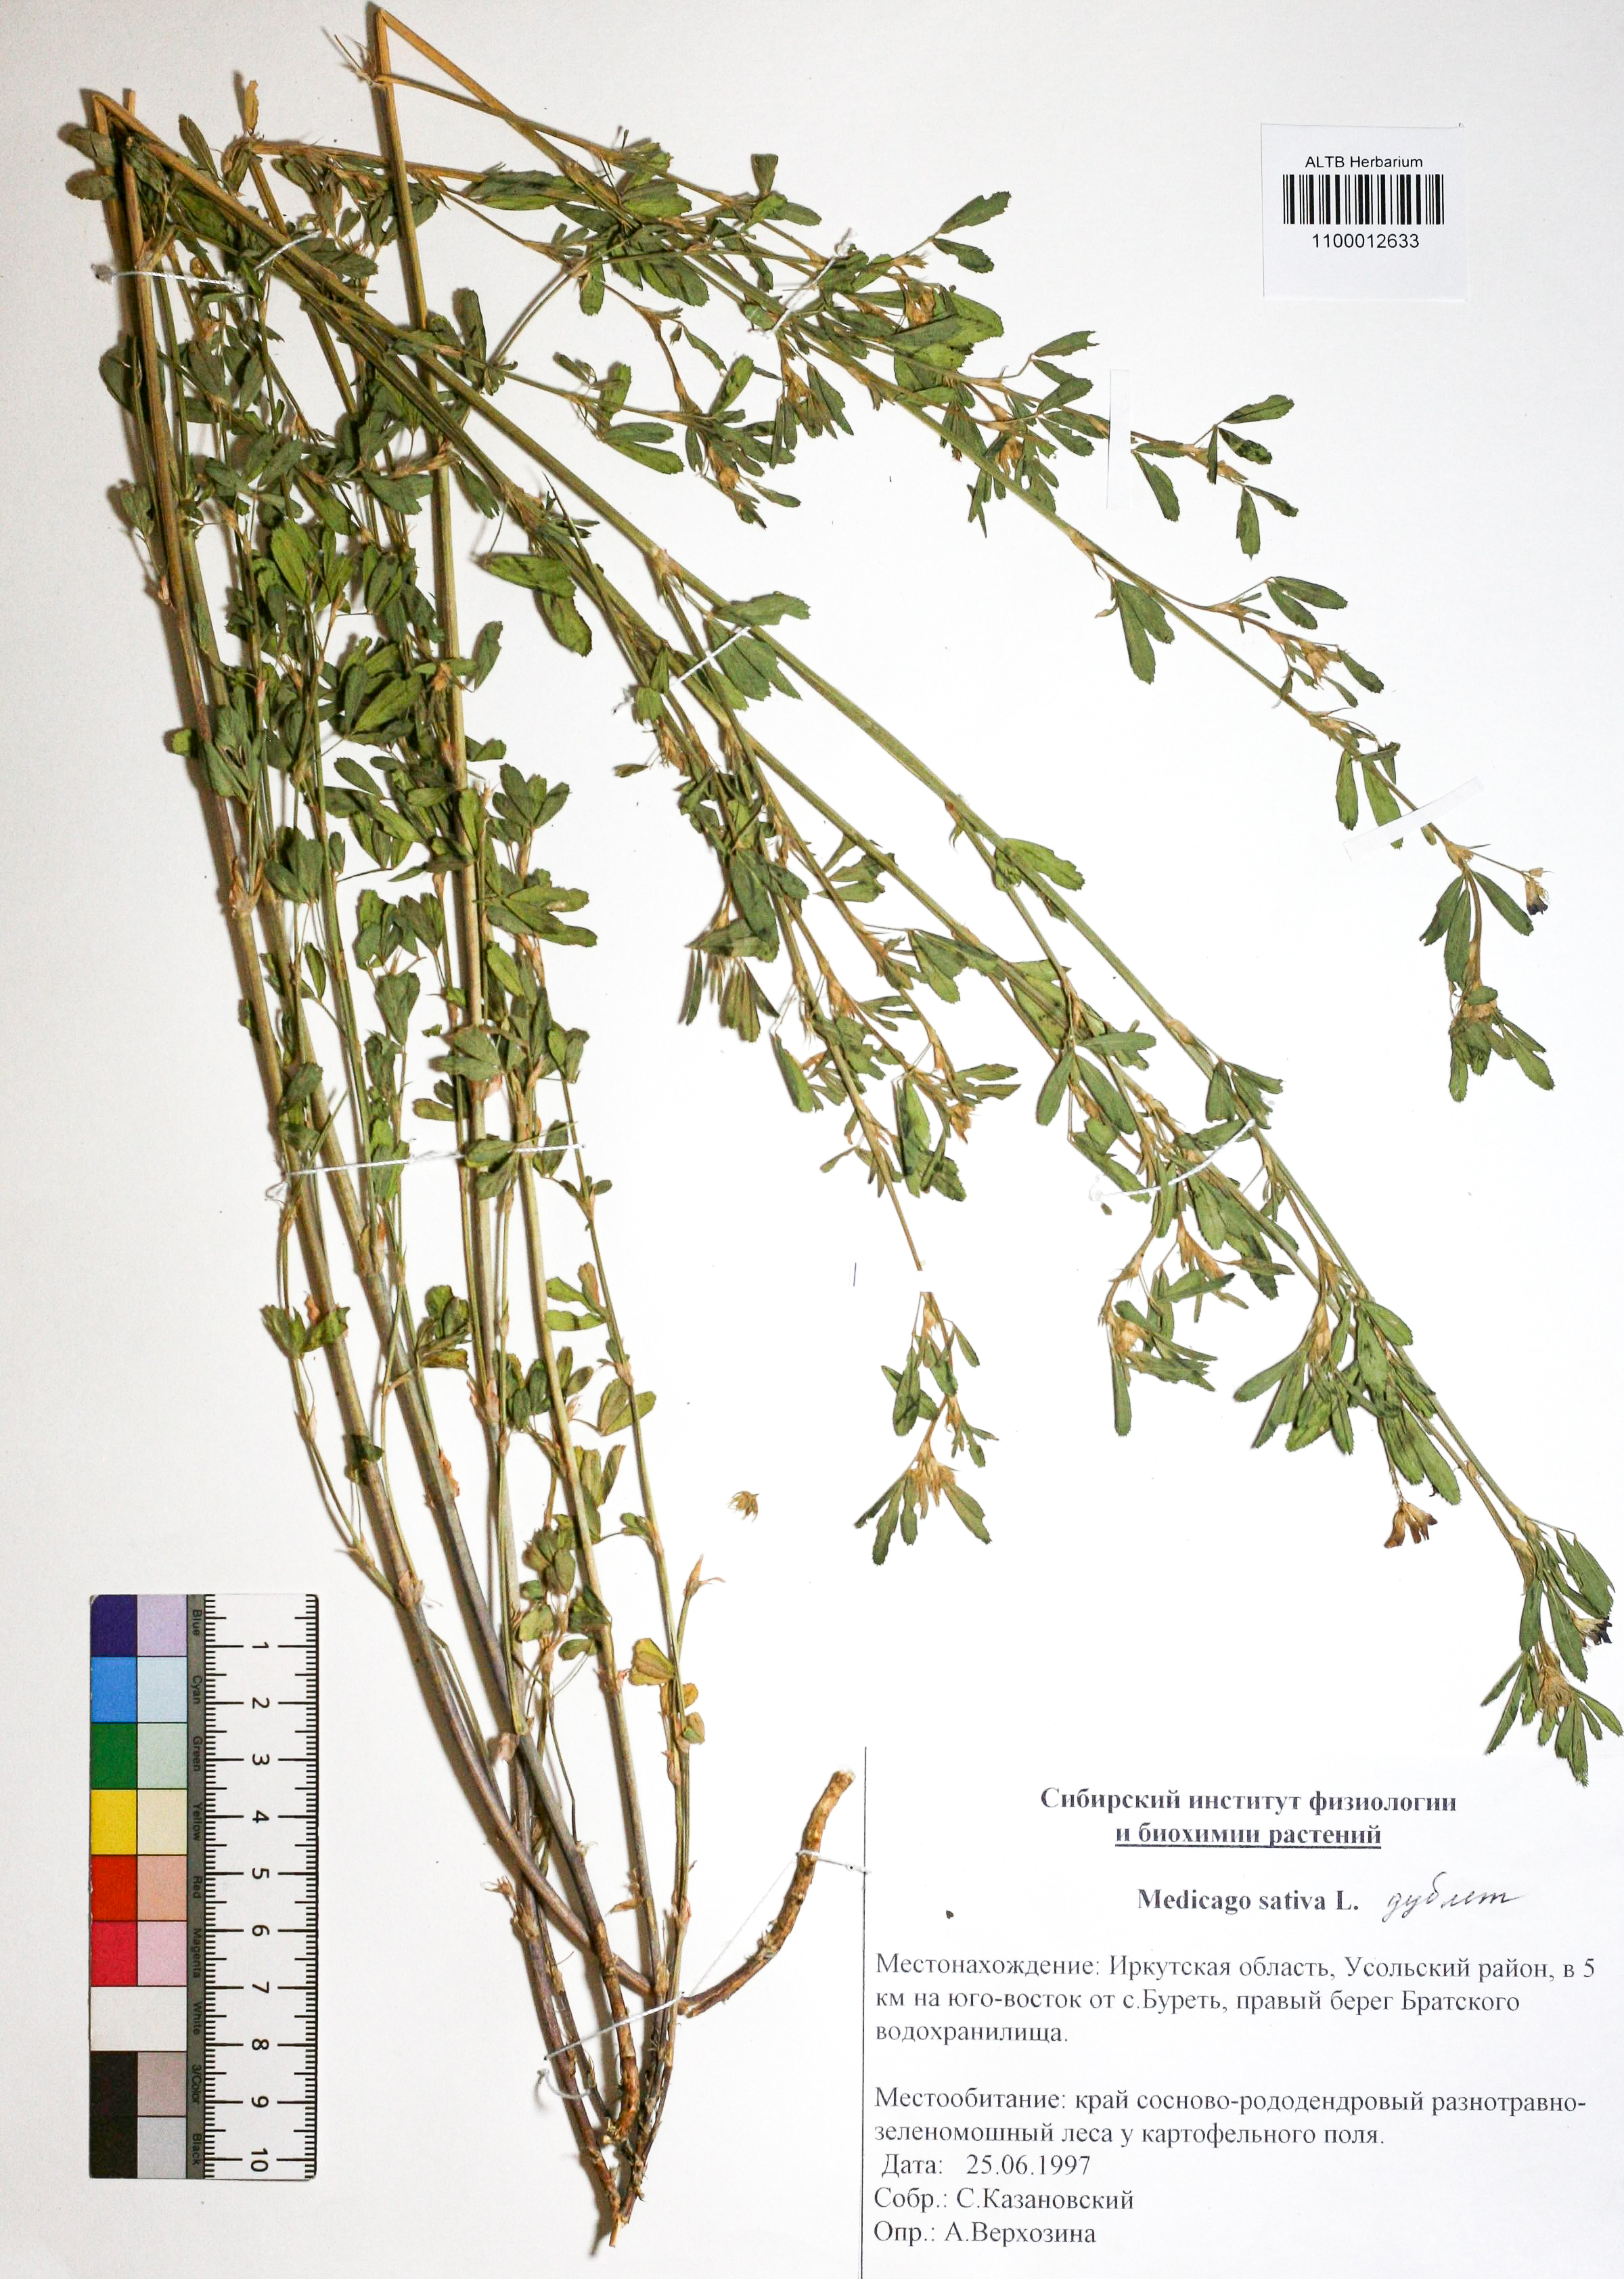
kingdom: Plantae
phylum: Tracheophyta
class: Magnoliopsida
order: Fabales
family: Fabaceae
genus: Medicago
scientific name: Medicago sativa
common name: Alfalfa
